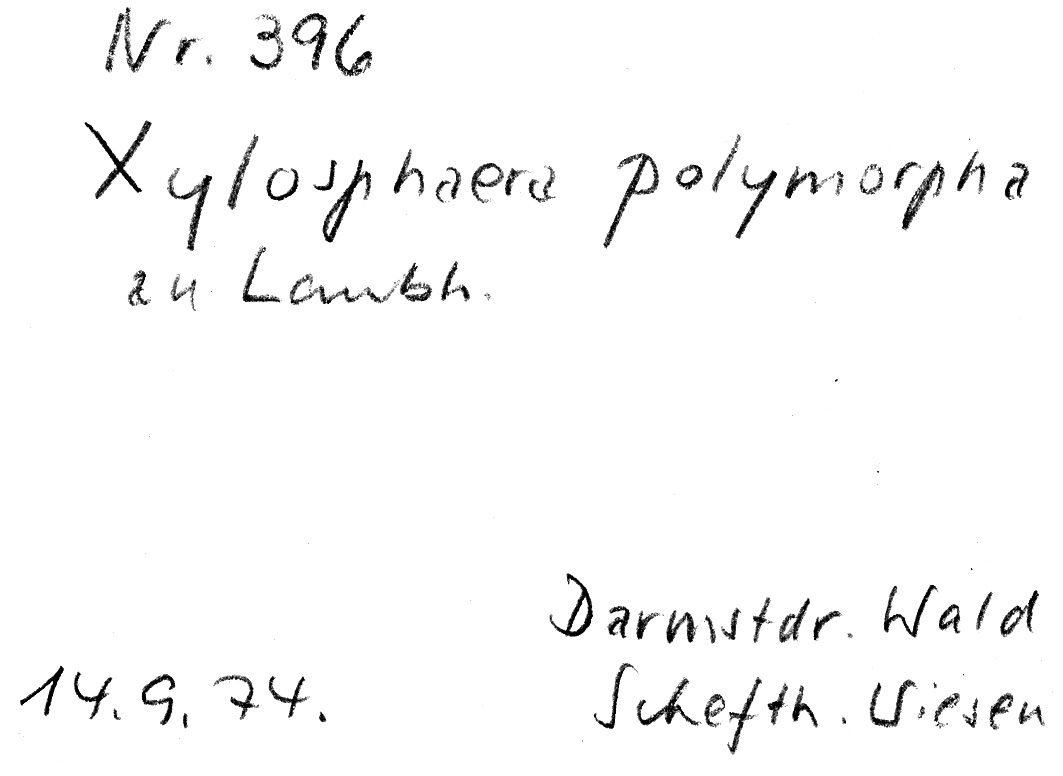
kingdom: Fungi
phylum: Ascomycota
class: Sordariomycetes
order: Xylariales
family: Xylariaceae
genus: Xylaria
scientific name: Xylaria polymorpha
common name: Dead man's fingers
